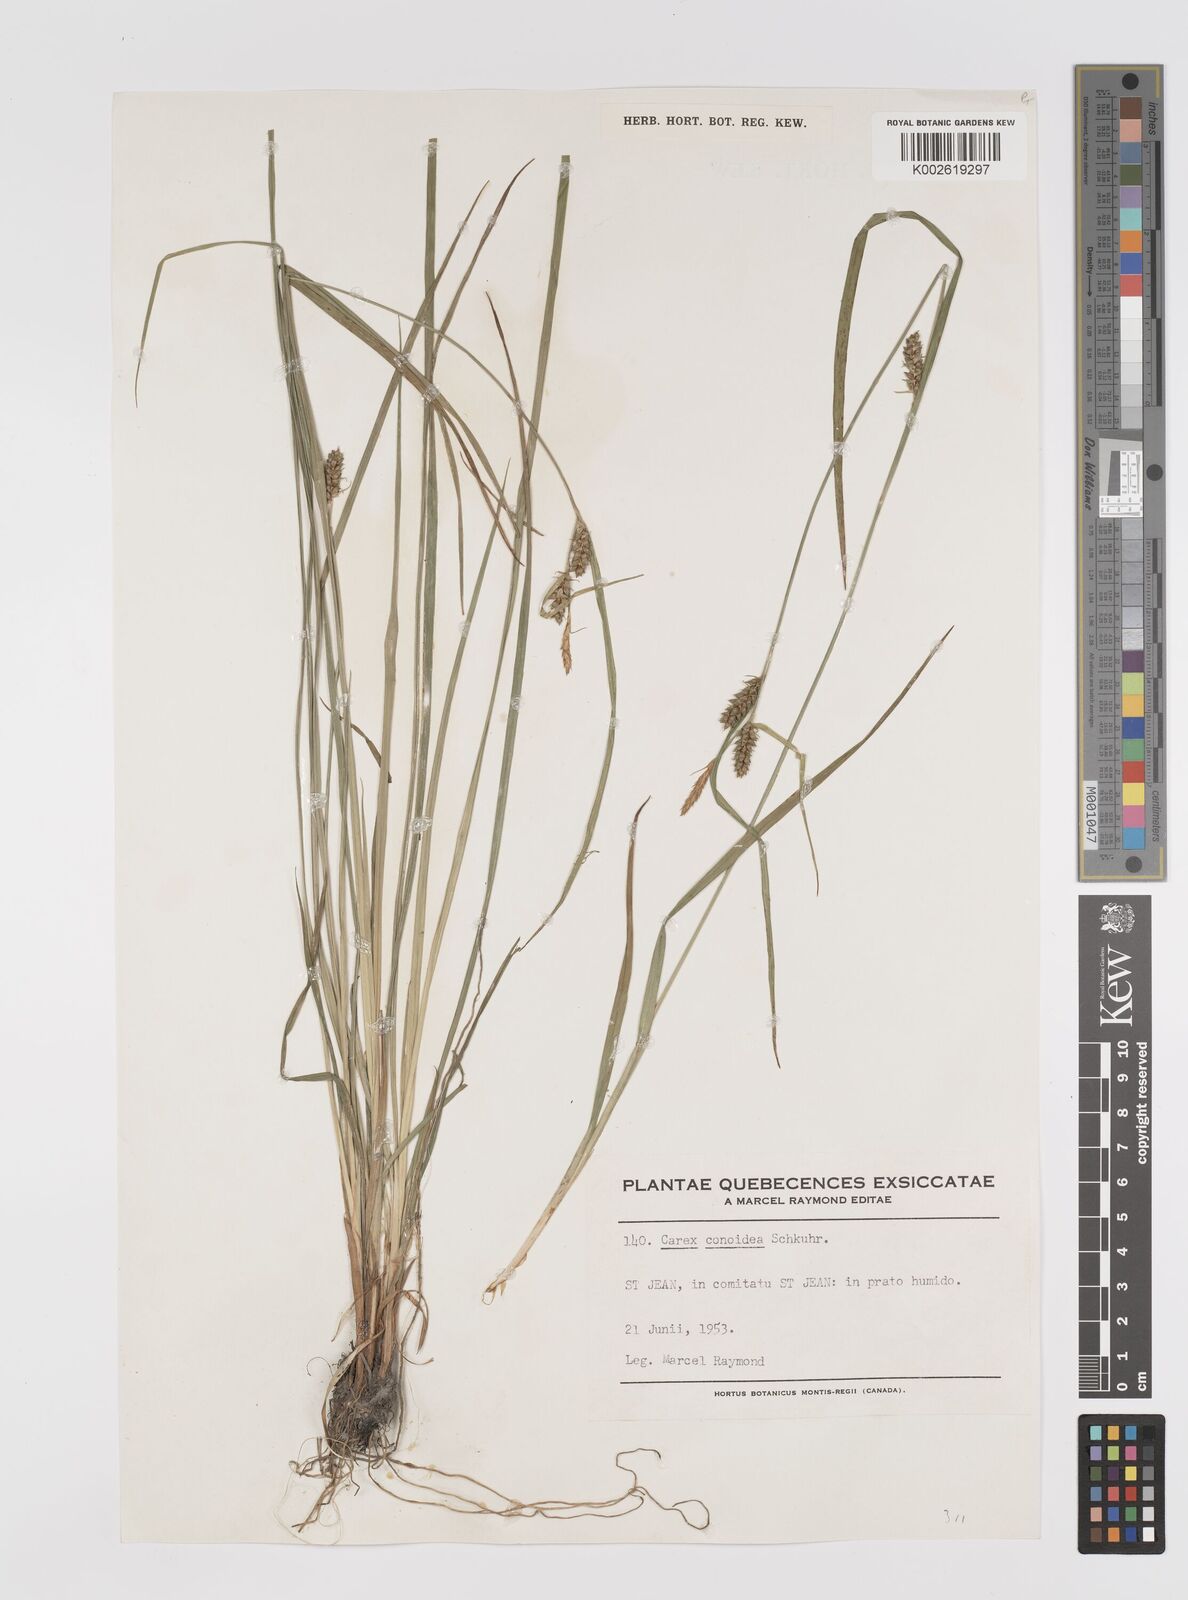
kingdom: Plantae
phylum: Tracheophyta
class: Liliopsida
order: Poales
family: Cyperaceae
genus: Carex
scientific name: Carex conoidea
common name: Cone shaped sedge
